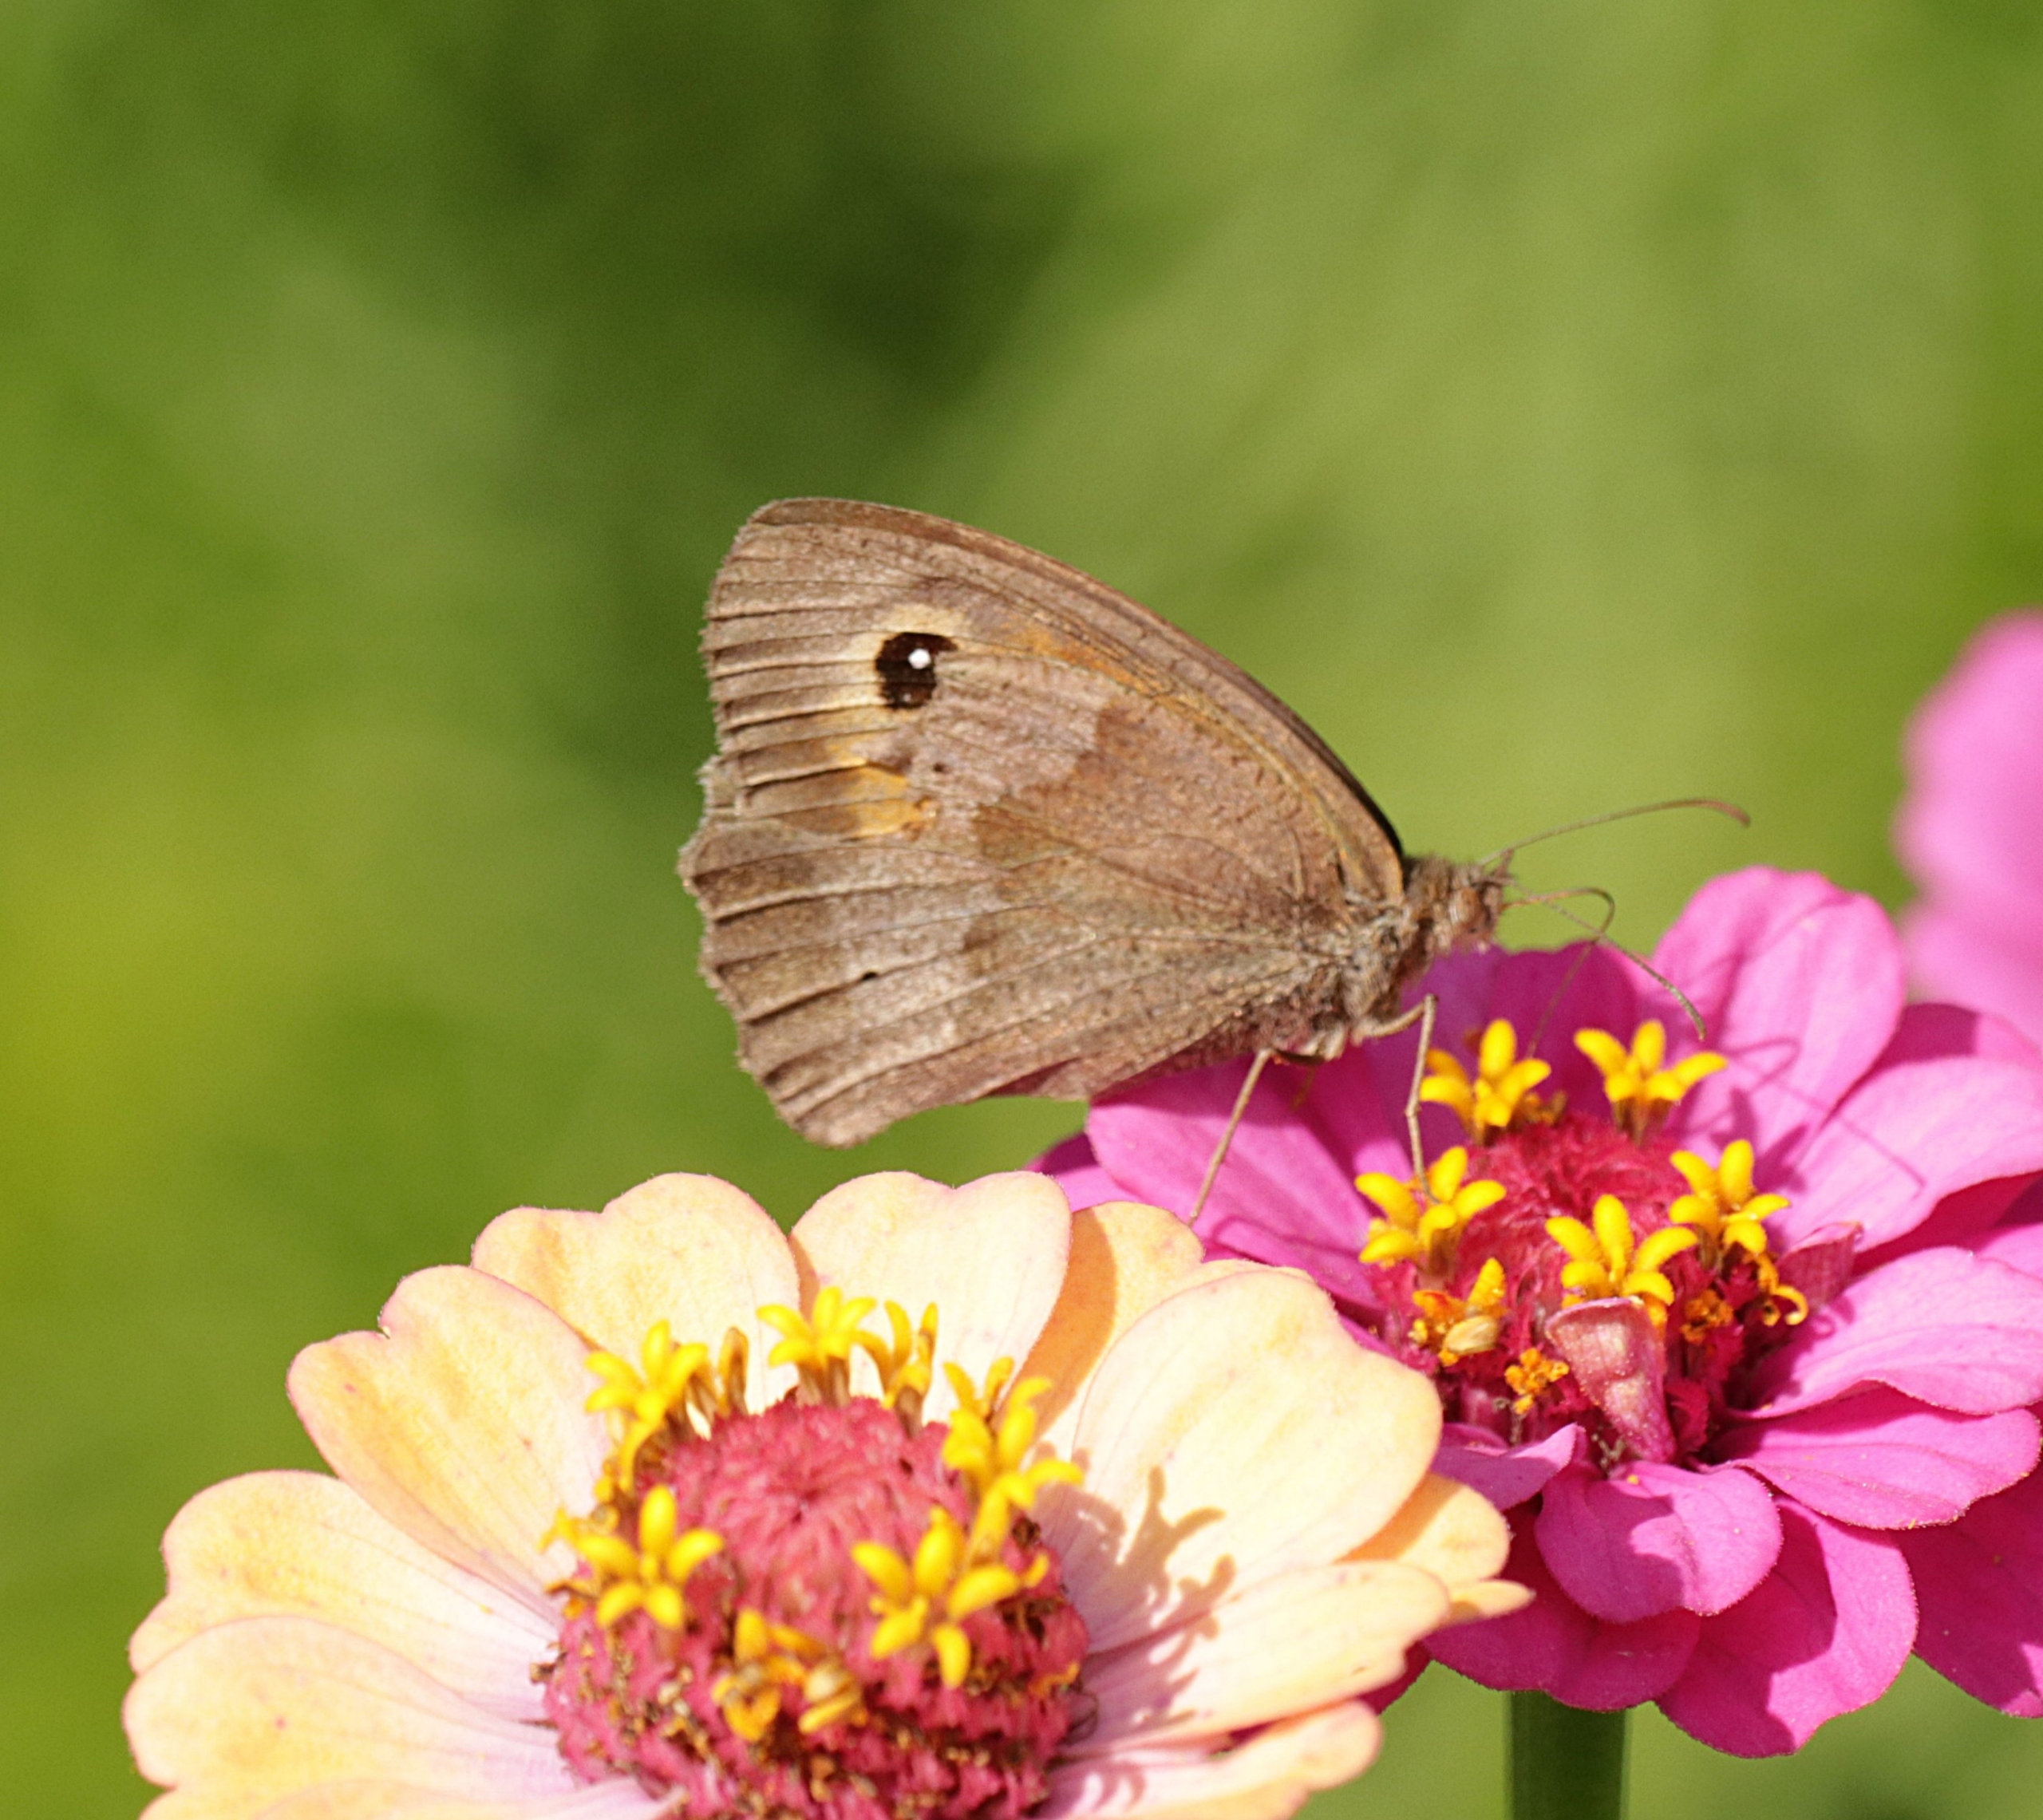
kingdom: Animalia
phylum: Arthropoda
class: Insecta
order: Lepidoptera
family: Nymphalidae
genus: Maniola
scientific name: Maniola jurtina
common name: Græsrandøje
